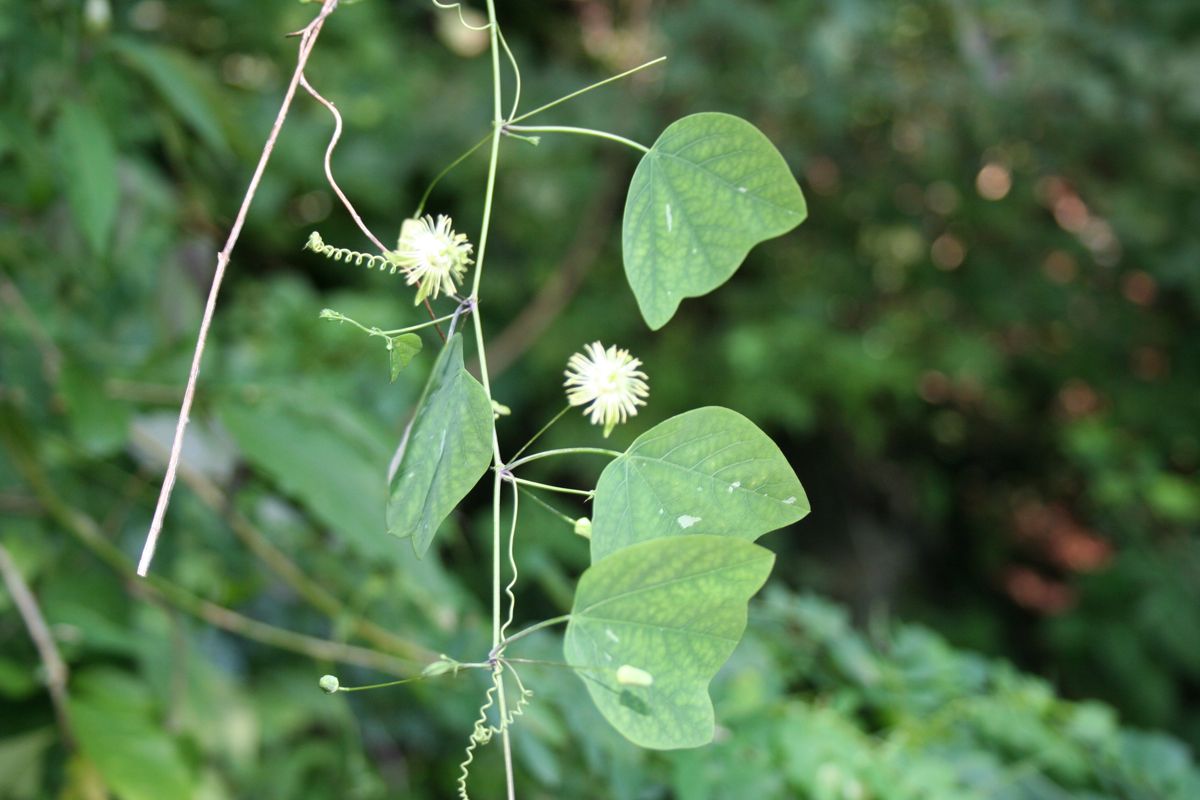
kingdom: Plantae
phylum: Tracheophyta
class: Magnoliopsida
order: Malpighiales
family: Passifloraceae
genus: Passiflora
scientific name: Passiflora filipes
